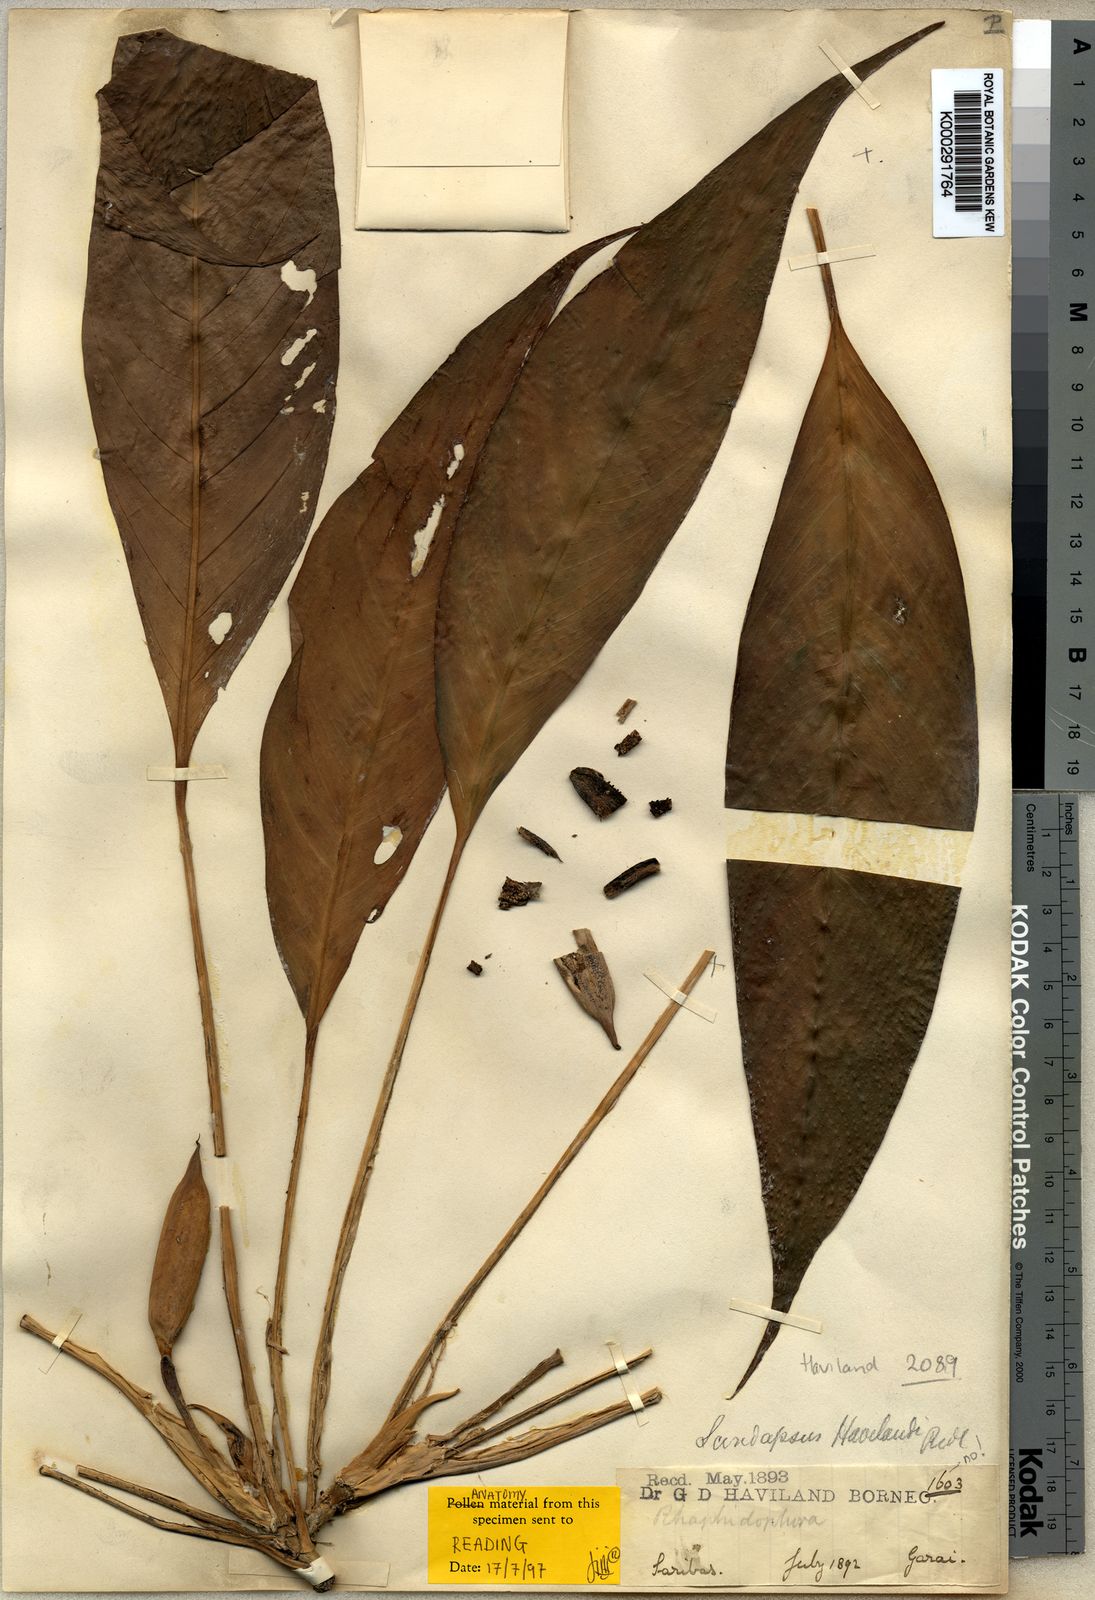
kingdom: Plantae
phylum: Tracheophyta
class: Liliopsida
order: Alismatales
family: Araceae
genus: Rhaphidophora
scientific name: Rhaphidophora megasperma
